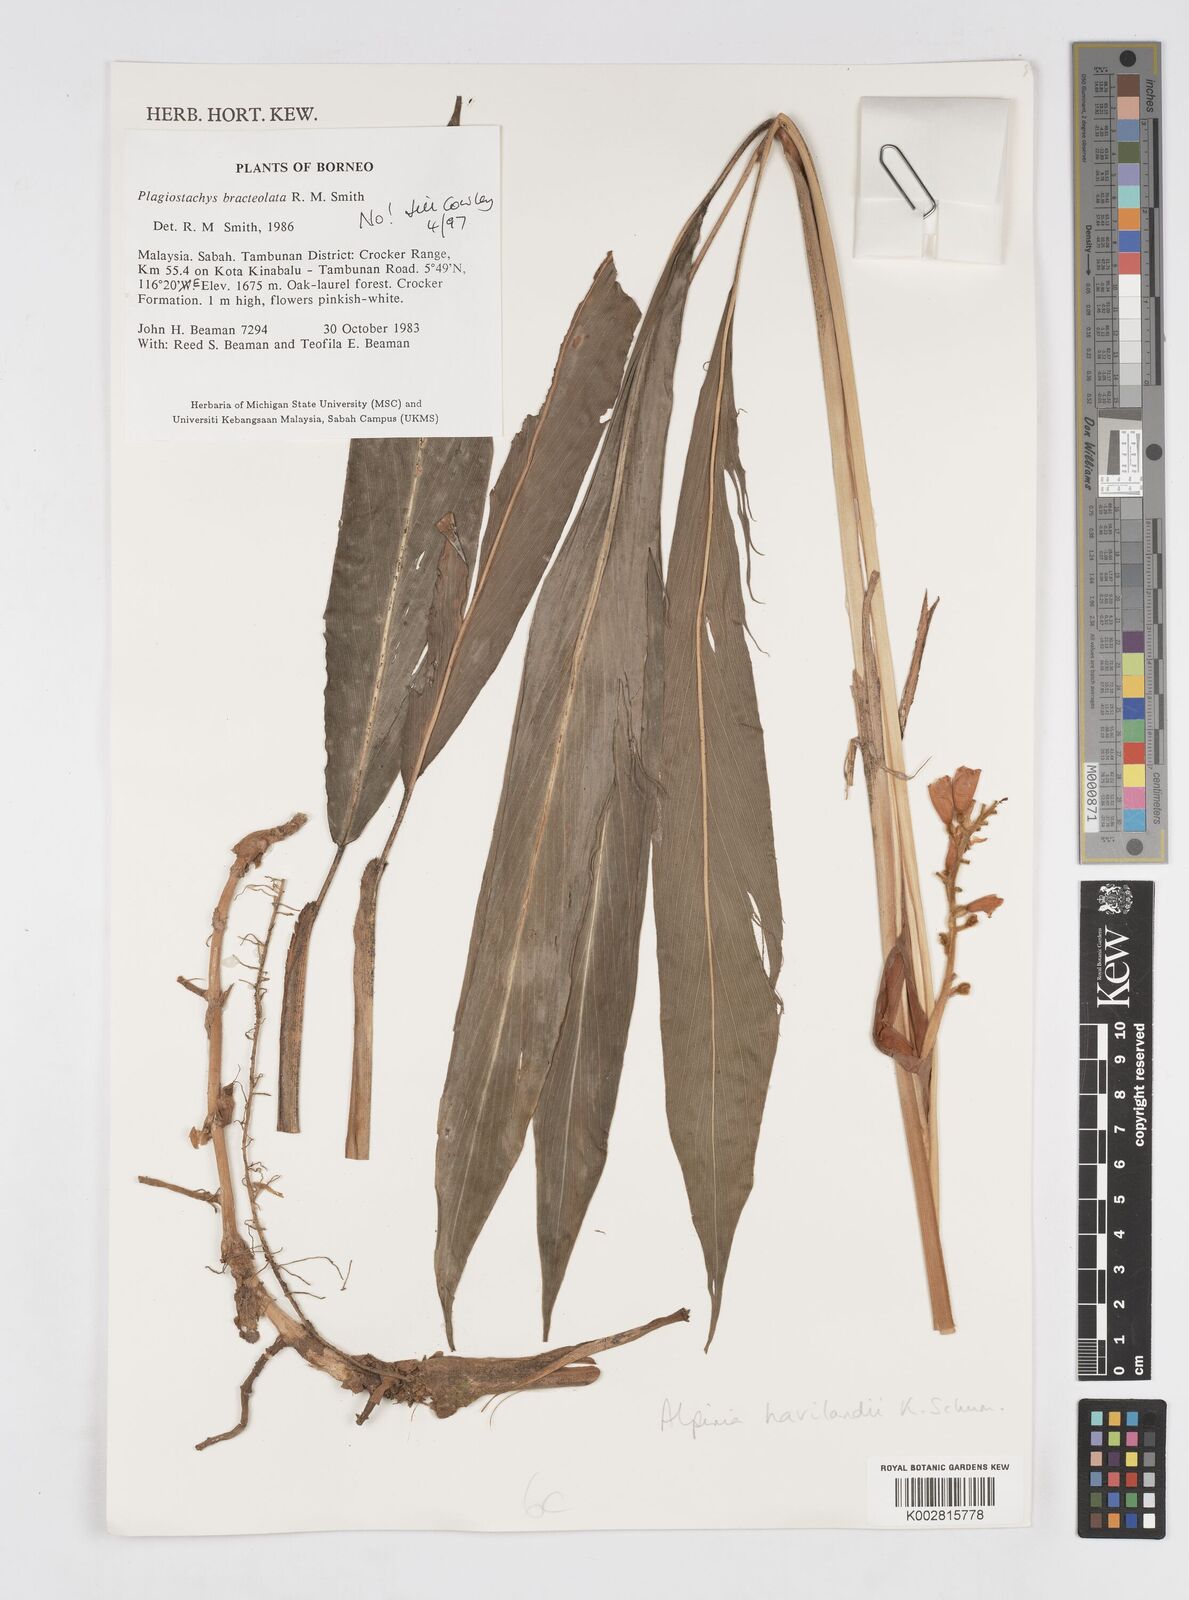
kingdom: Plantae
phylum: Tracheophyta
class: Liliopsida
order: Zingiberales
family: Zingiberaceae
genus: Alpinia
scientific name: Alpinia havilandii
